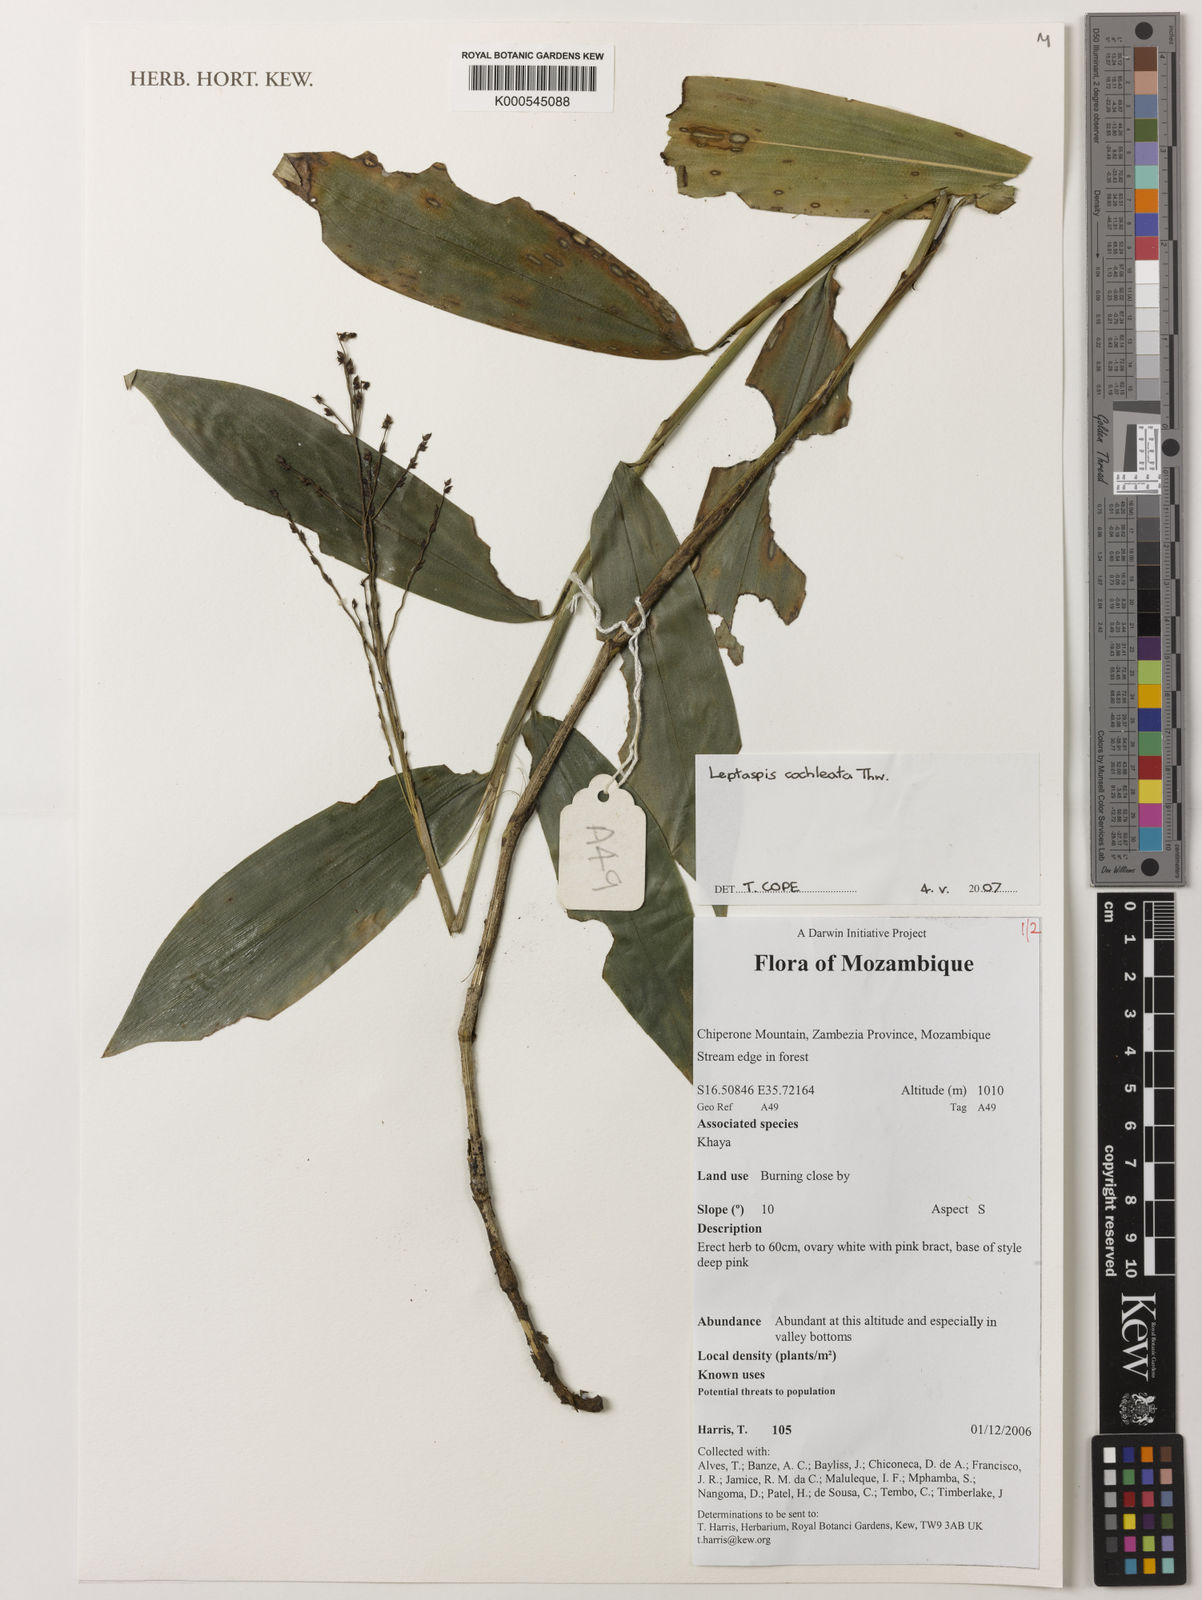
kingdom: Plantae
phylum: Tracheophyta
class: Liliopsida
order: Poales
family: Poaceae
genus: Leptaspis
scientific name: Leptaspis zeylanica
